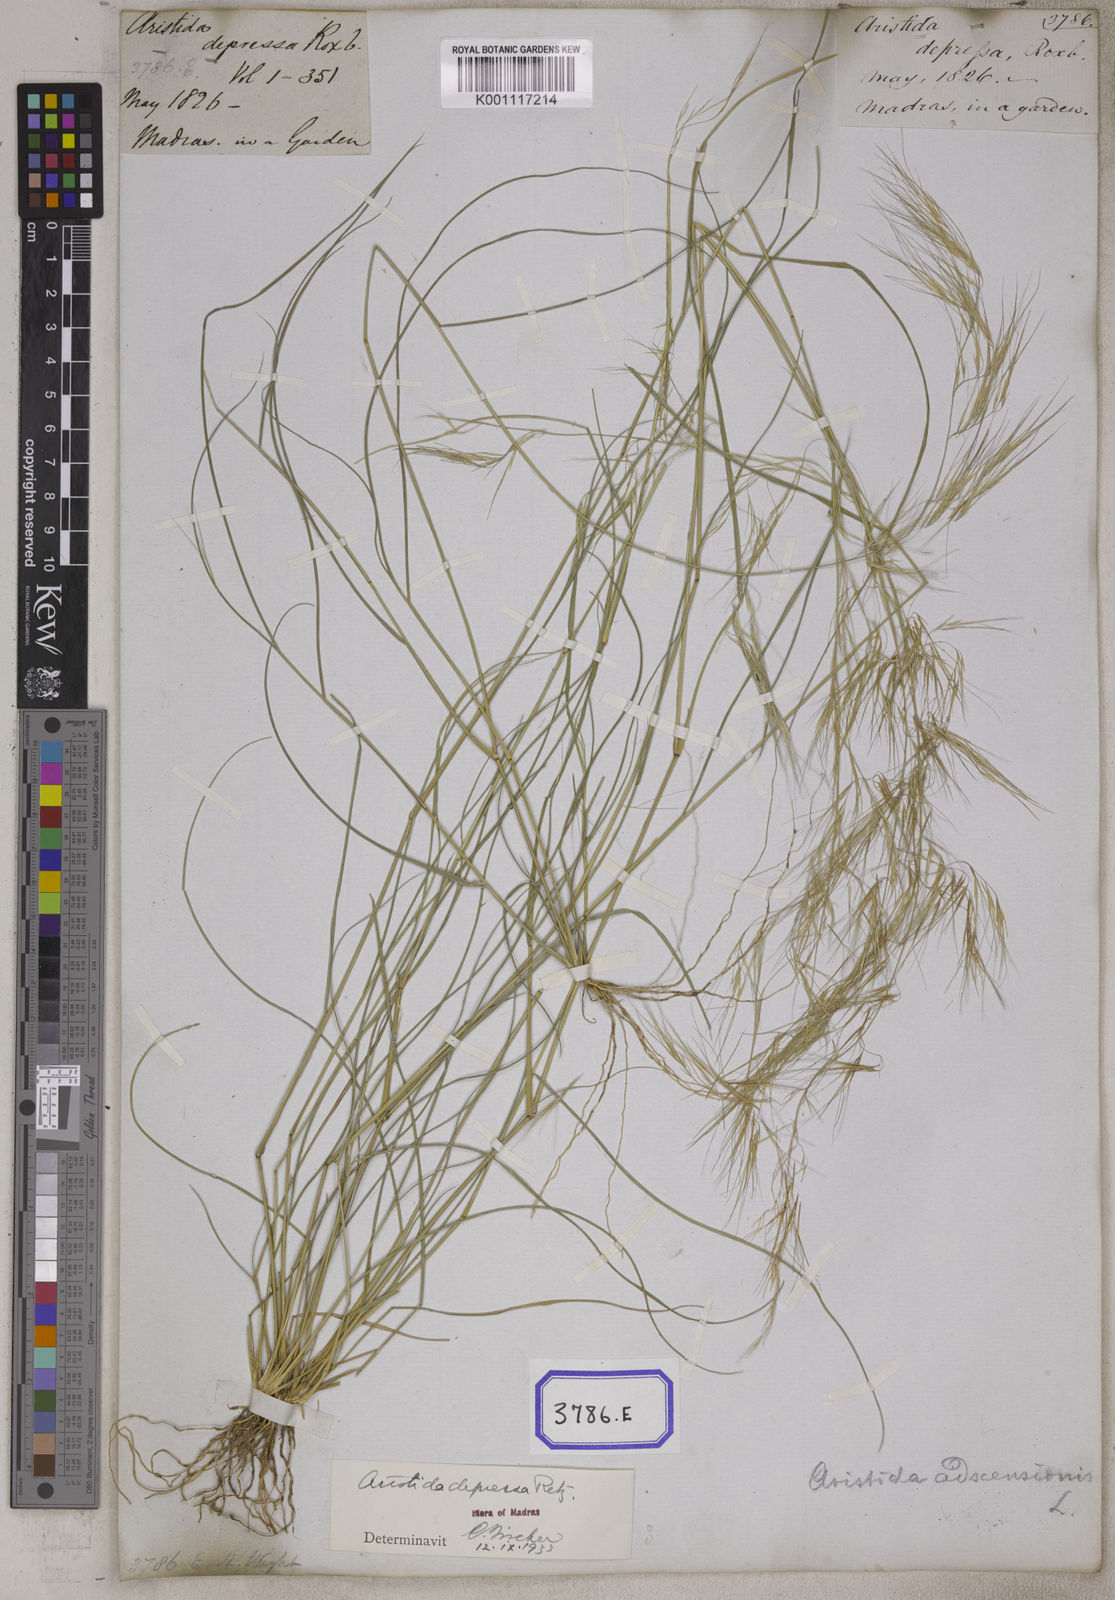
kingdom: Plantae
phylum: Tracheophyta
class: Liliopsida
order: Poales
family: Poaceae
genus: Aristida
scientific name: Aristida adscensionis
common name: Sixweeks threeawn
